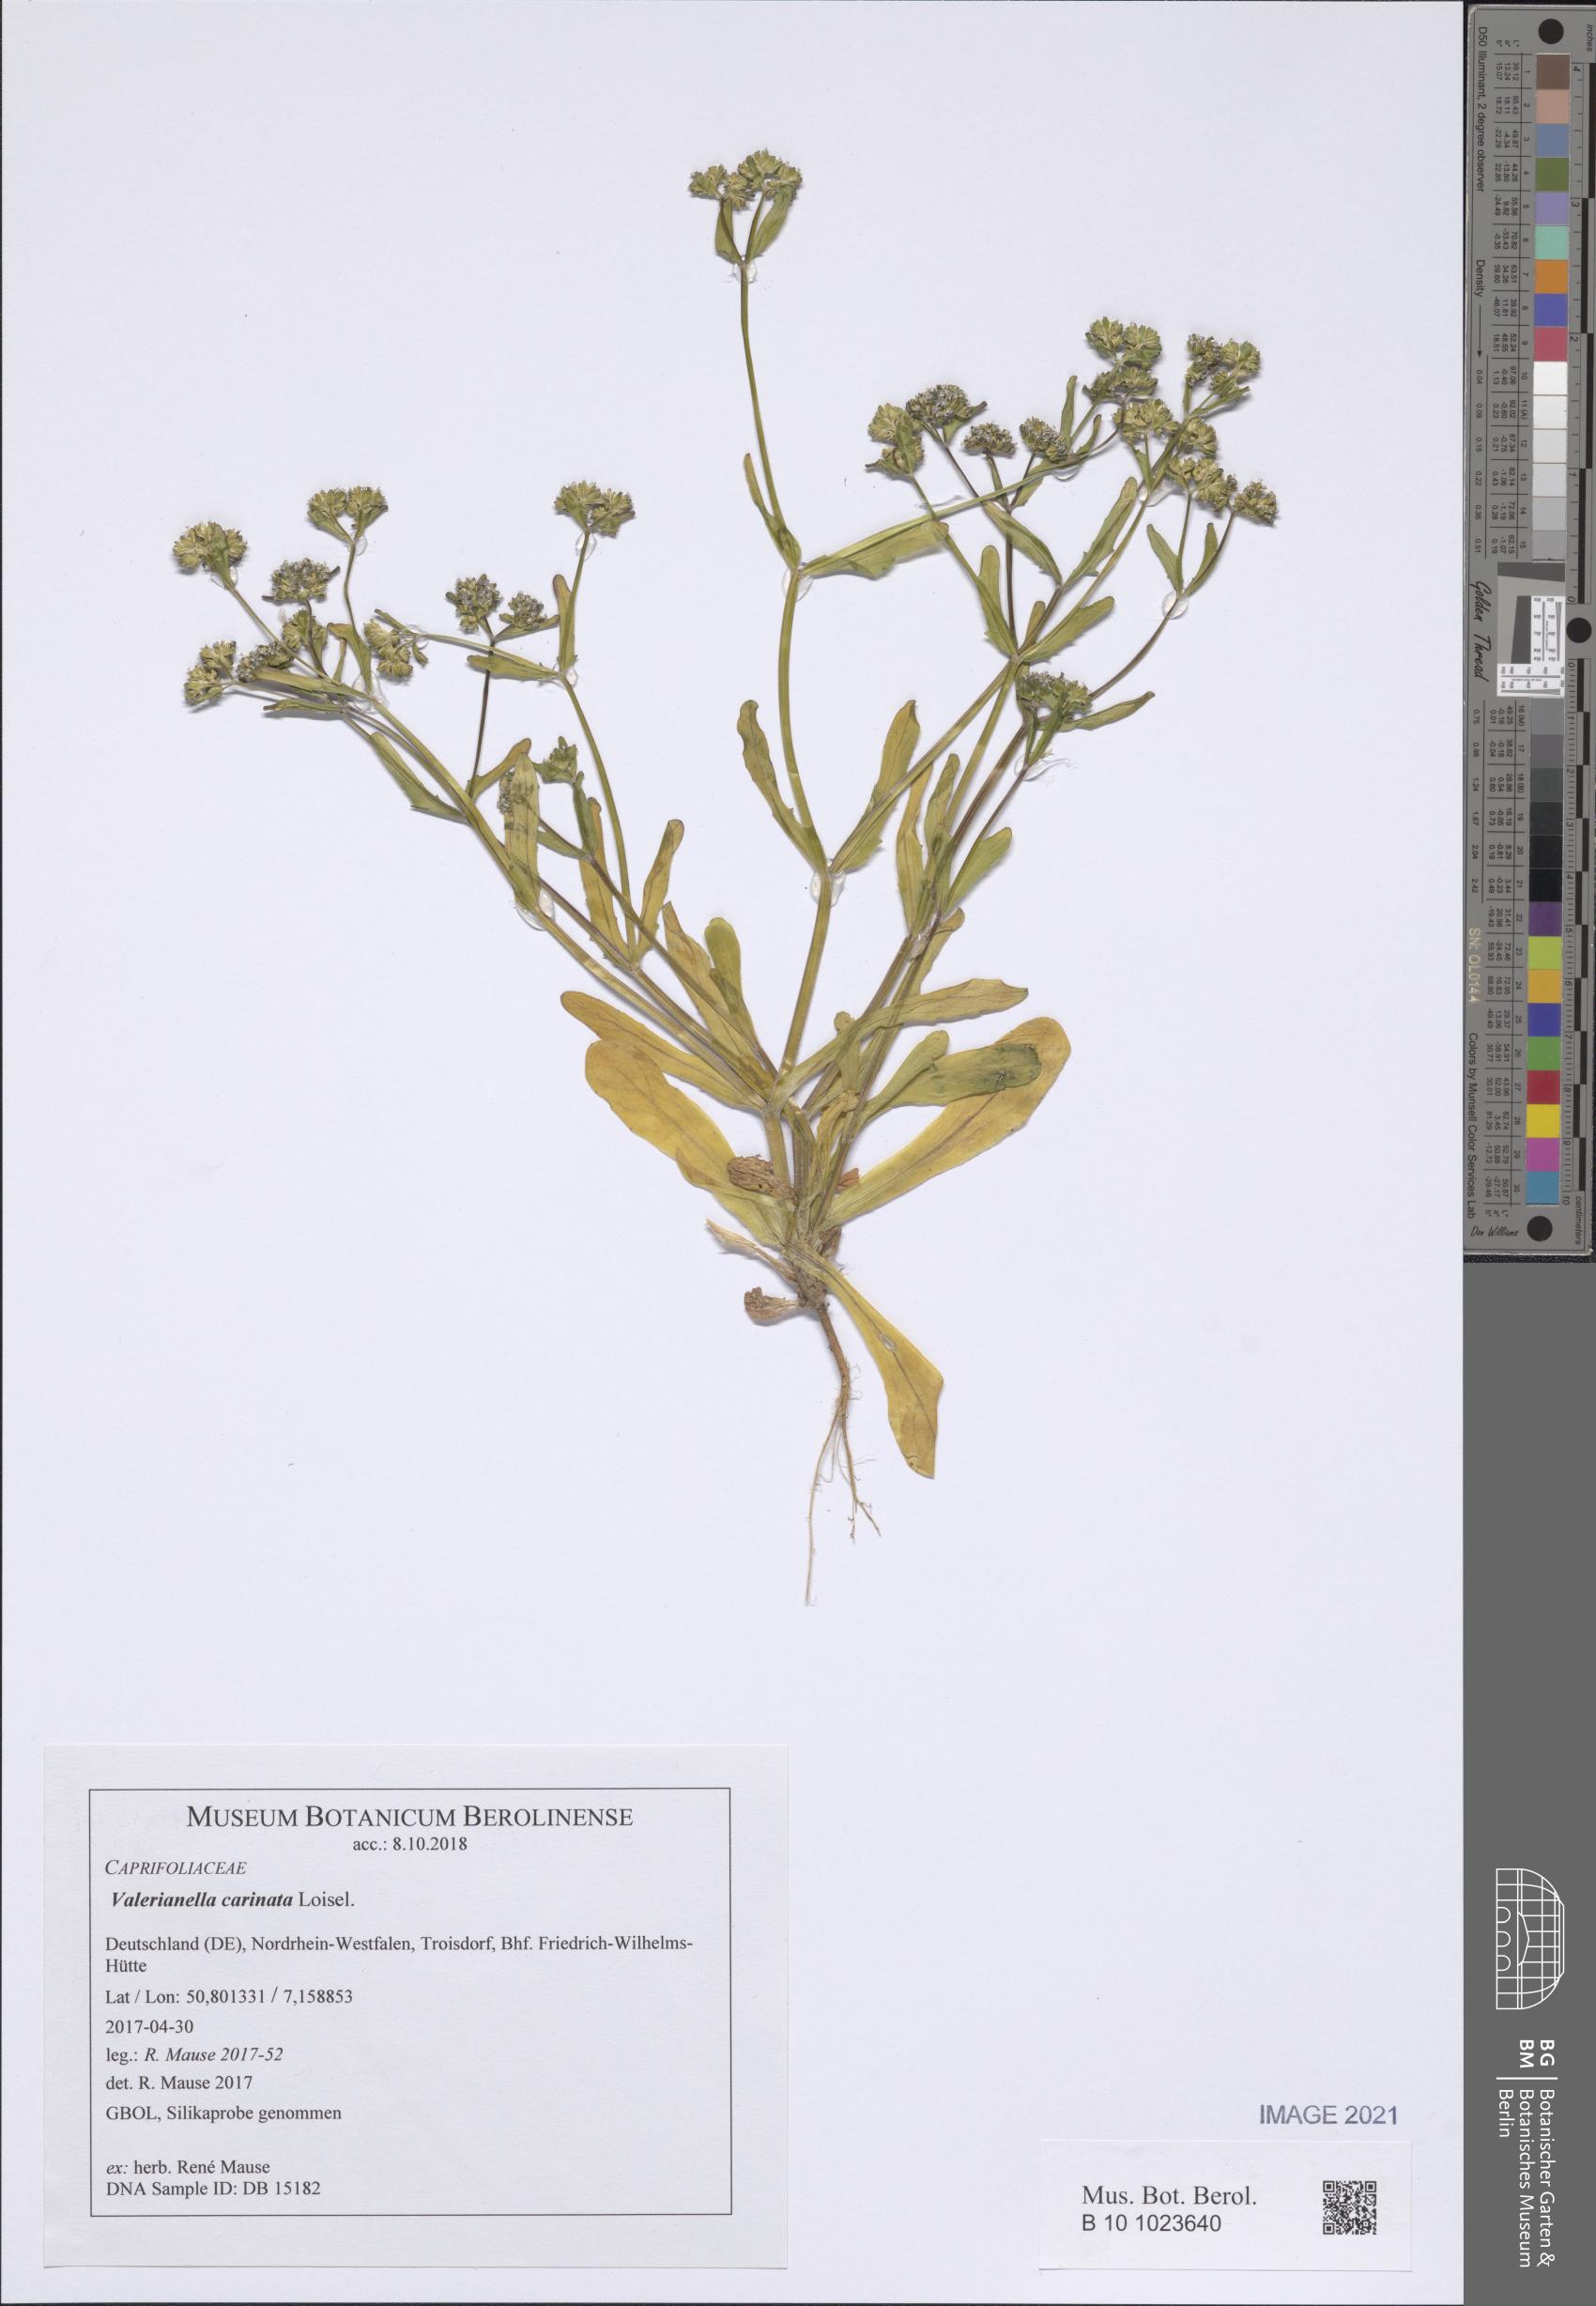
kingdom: Plantae
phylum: Tracheophyta
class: Magnoliopsida
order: Dipsacales
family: Caprifoliaceae
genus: Valerianella
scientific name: Valerianella carinata
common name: Keeled-fruited cornsalad
